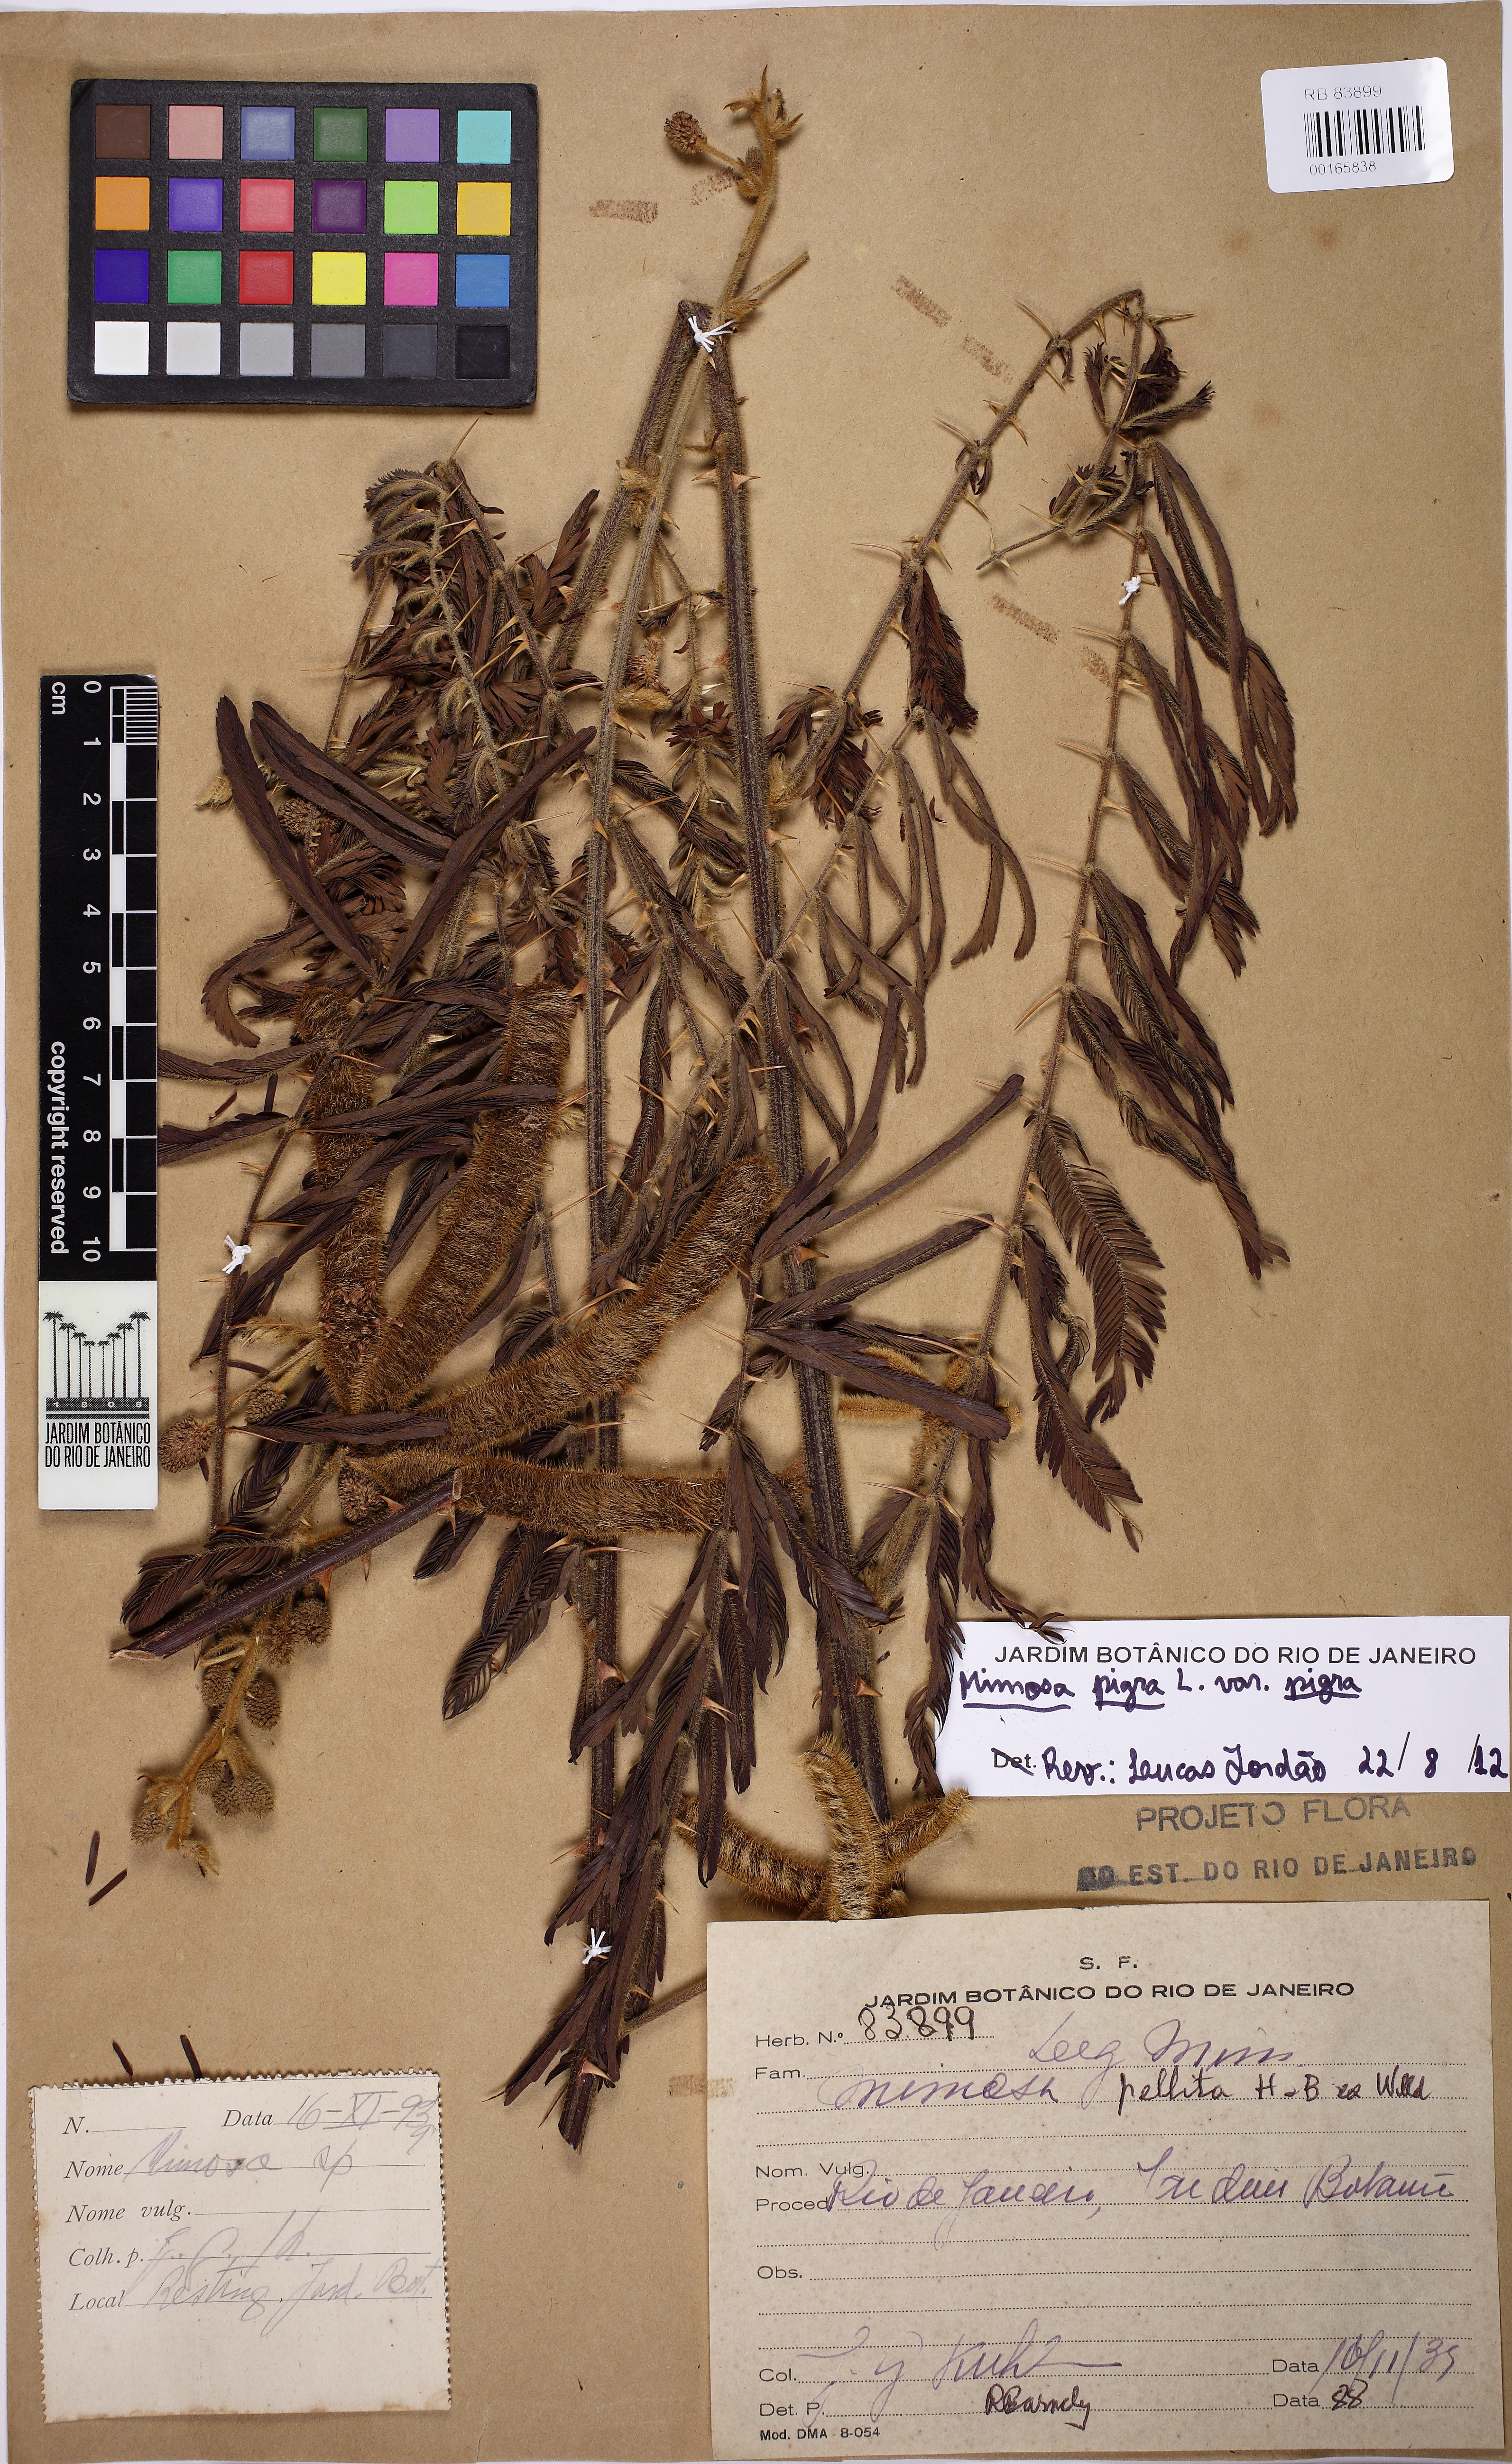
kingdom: Plantae
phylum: Tracheophyta
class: Magnoliopsida
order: Fabales
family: Fabaceae
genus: Mimosa
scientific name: Mimosa pigra
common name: Black mimosa
